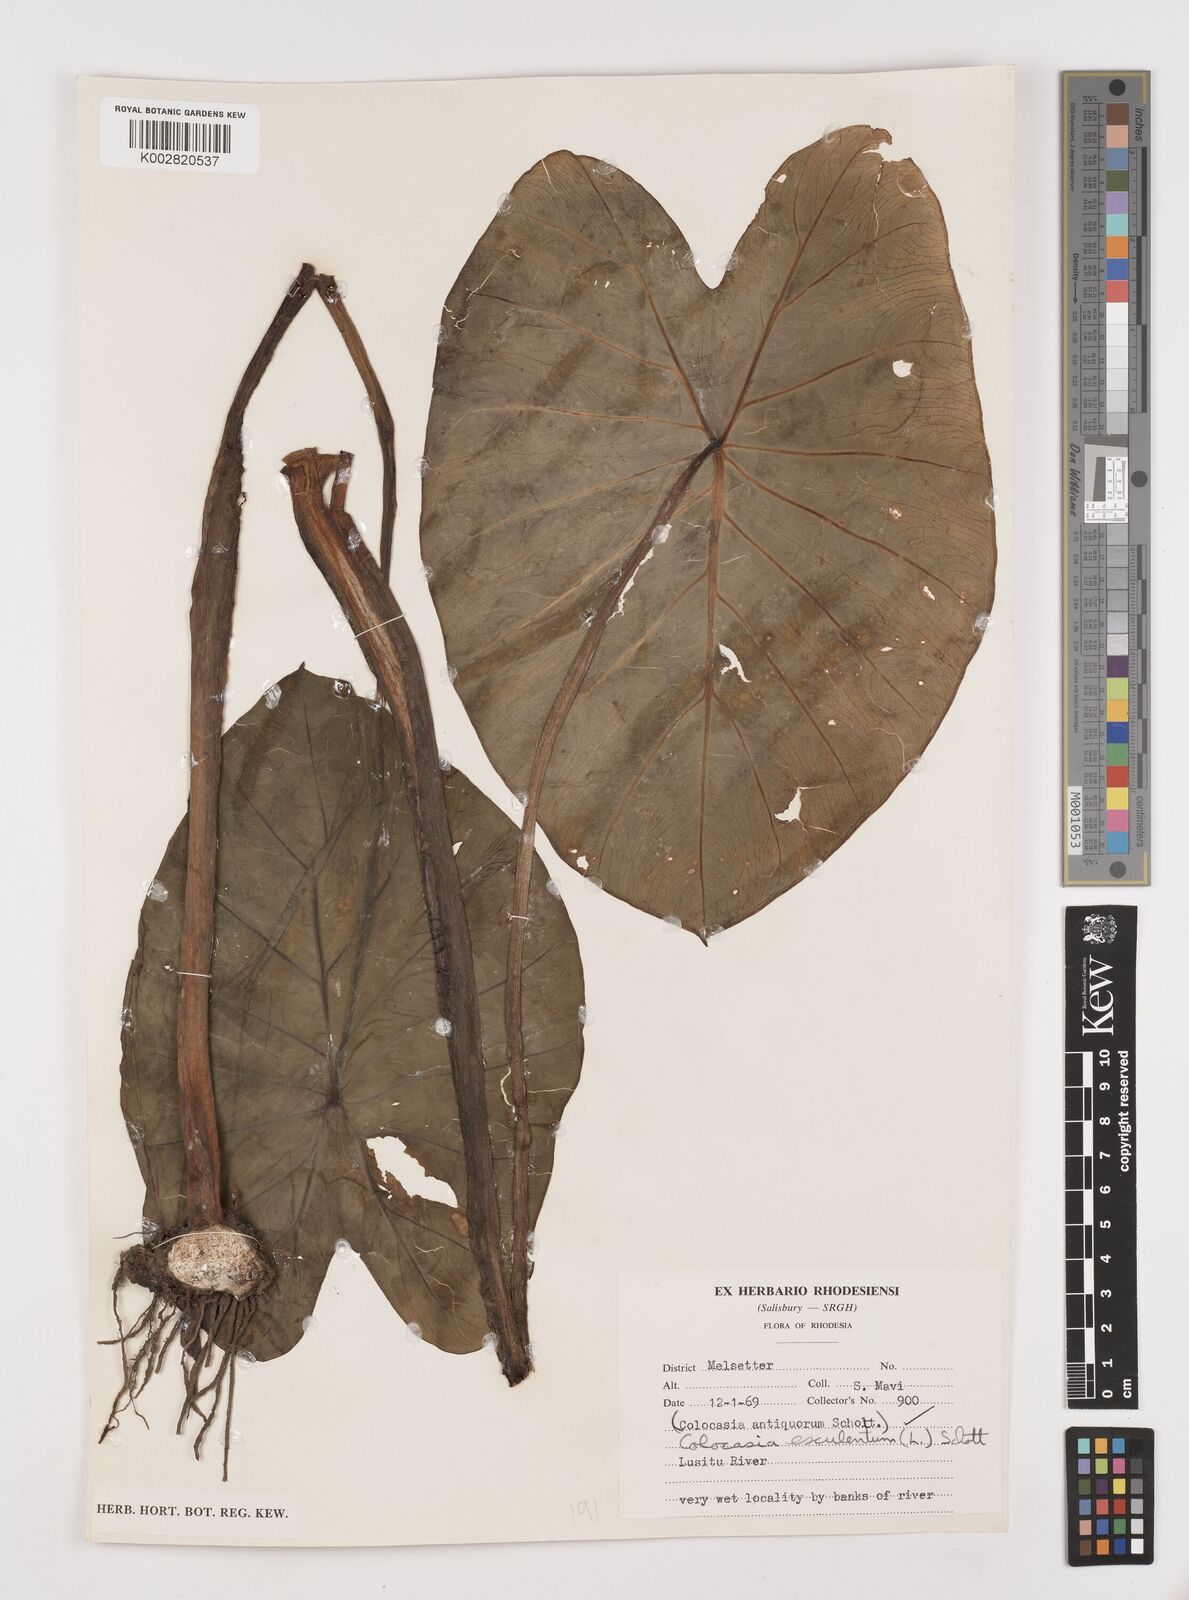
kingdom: Plantae
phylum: Tracheophyta
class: Liliopsida
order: Alismatales
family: Araceae
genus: Colocasia
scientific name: Colocasia esculenta
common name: Taro
